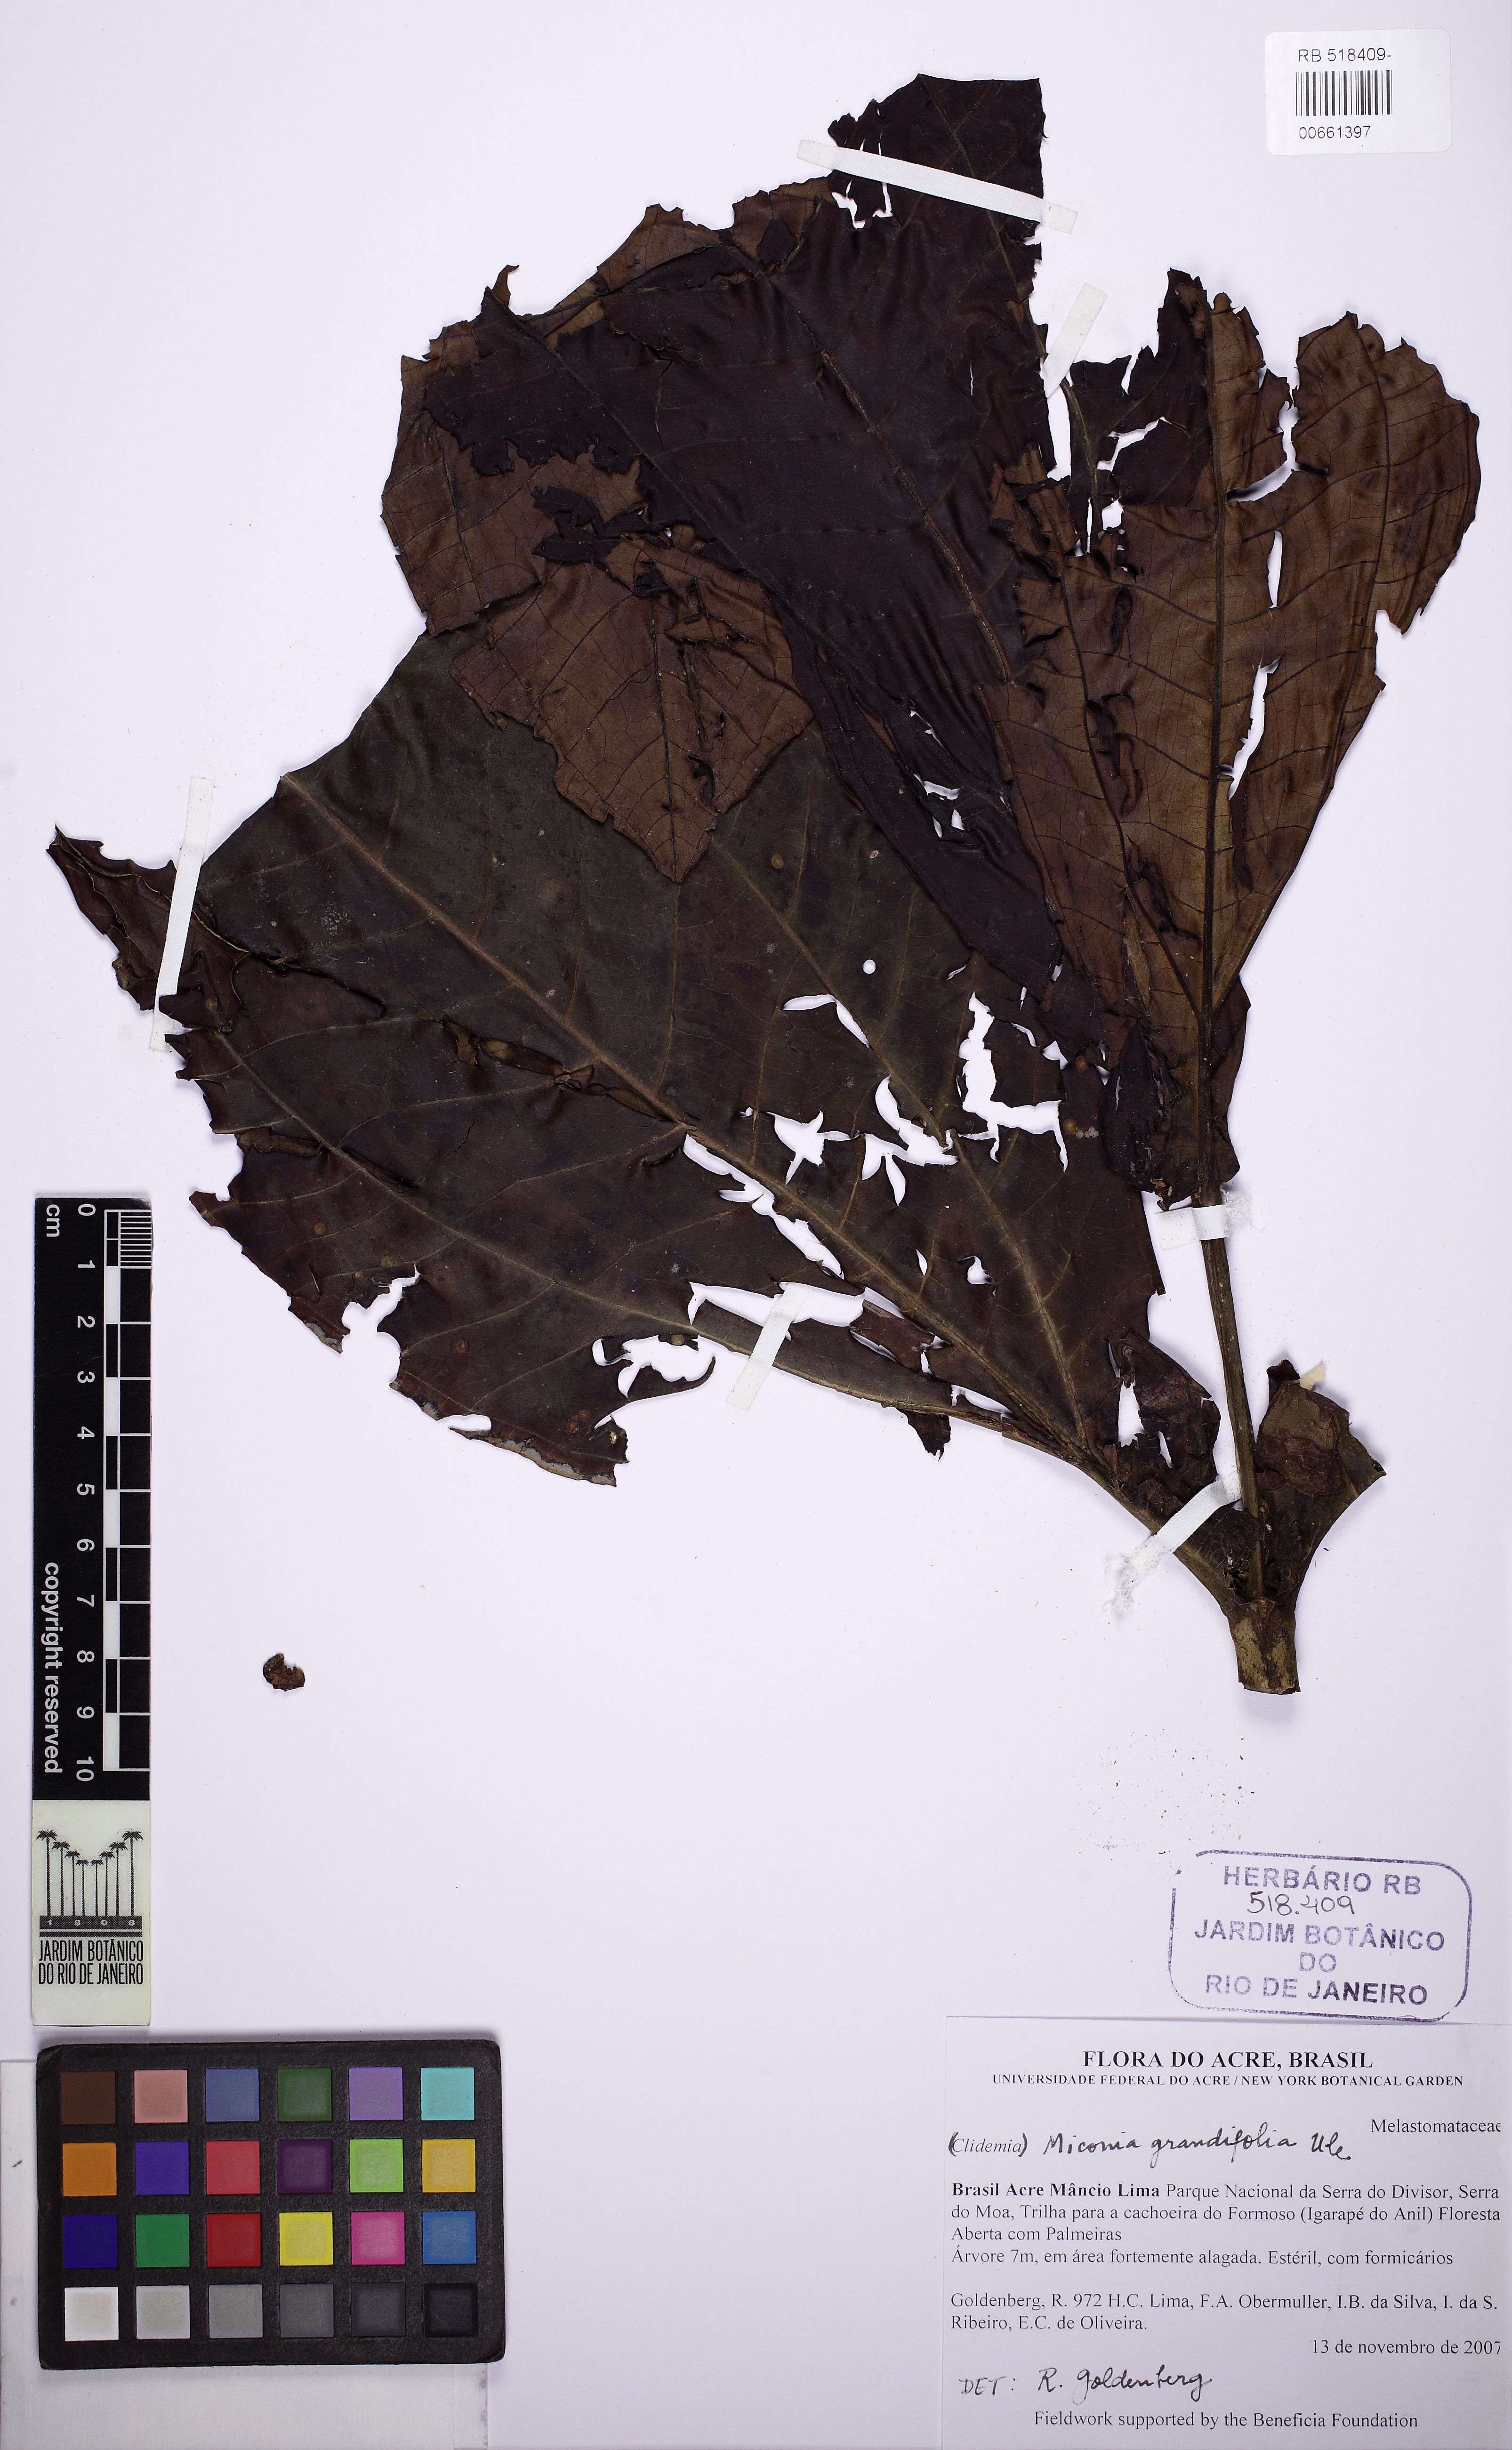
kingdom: Plantae
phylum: Tracheophyta
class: Magnoliopsida
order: Myrtales
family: Melastomataceae
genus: Miconia
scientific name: Miconia grandifoliata
